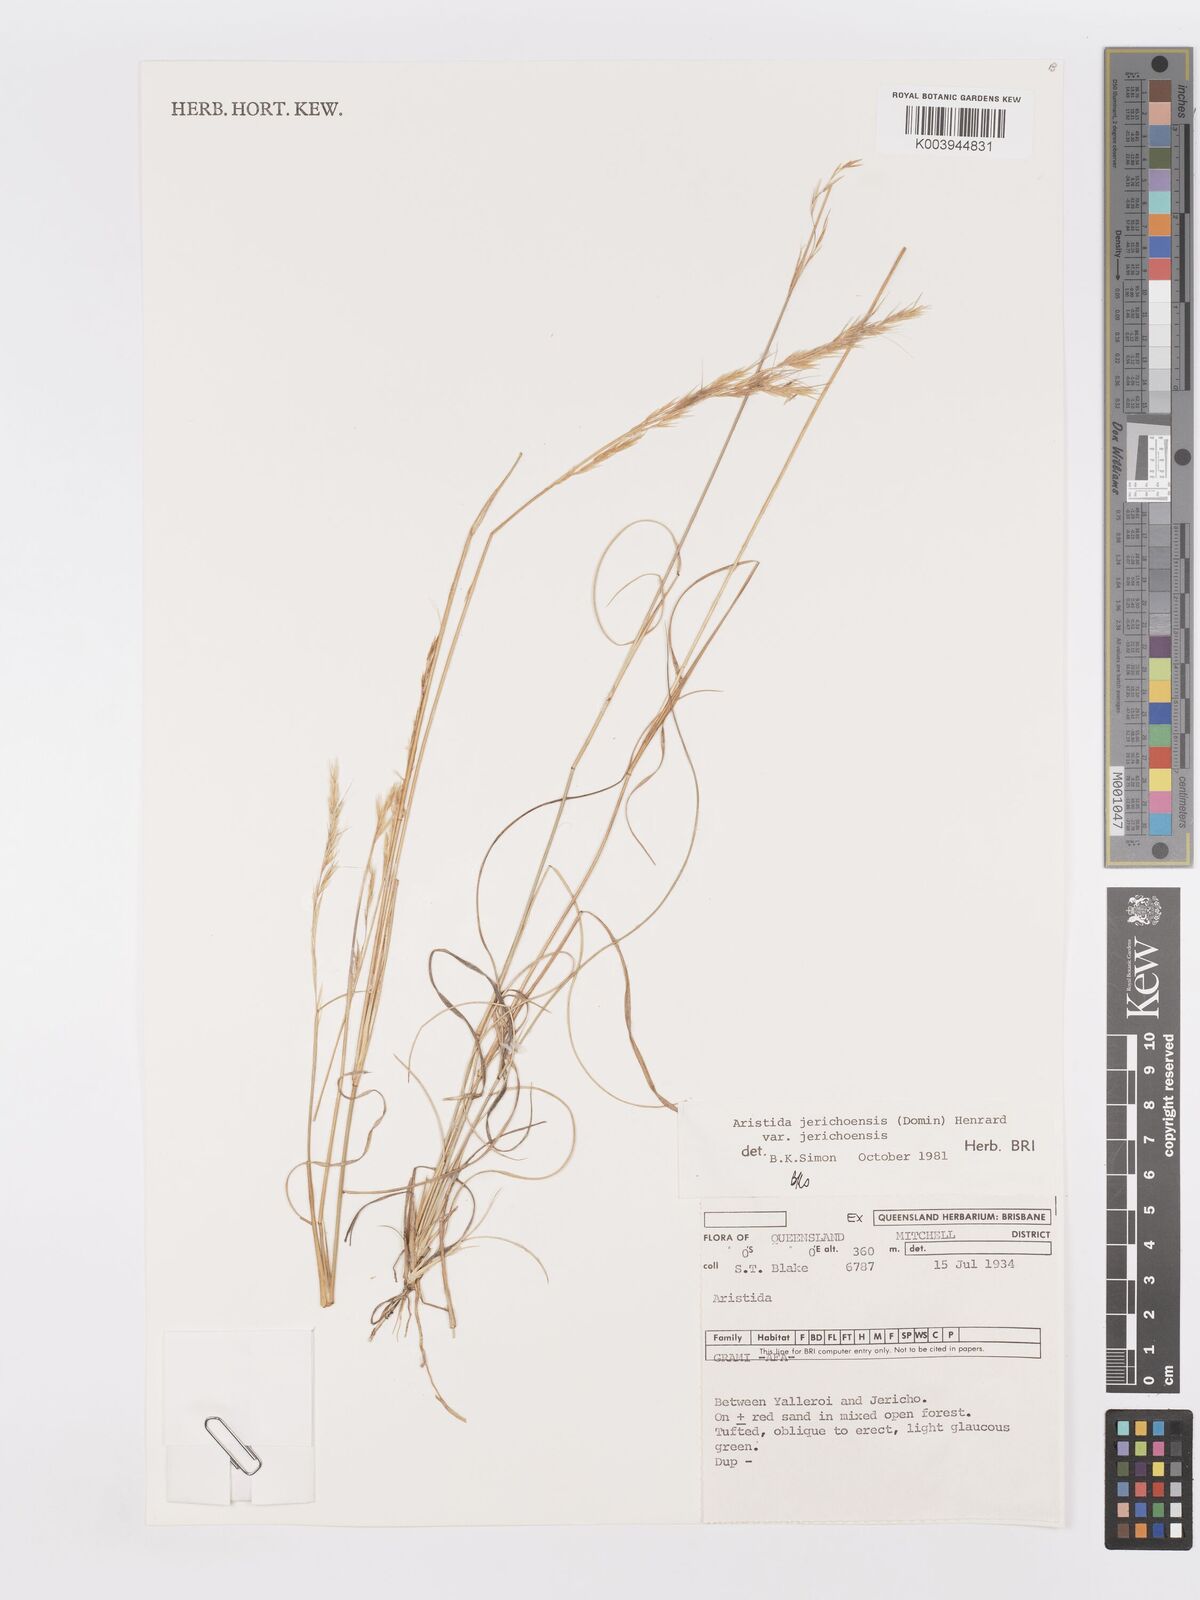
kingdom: Plantae
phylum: Tracheophyta
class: Liliopsida
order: Poales
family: Poaceae
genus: Aristida
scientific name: Aristida jerichoensis
